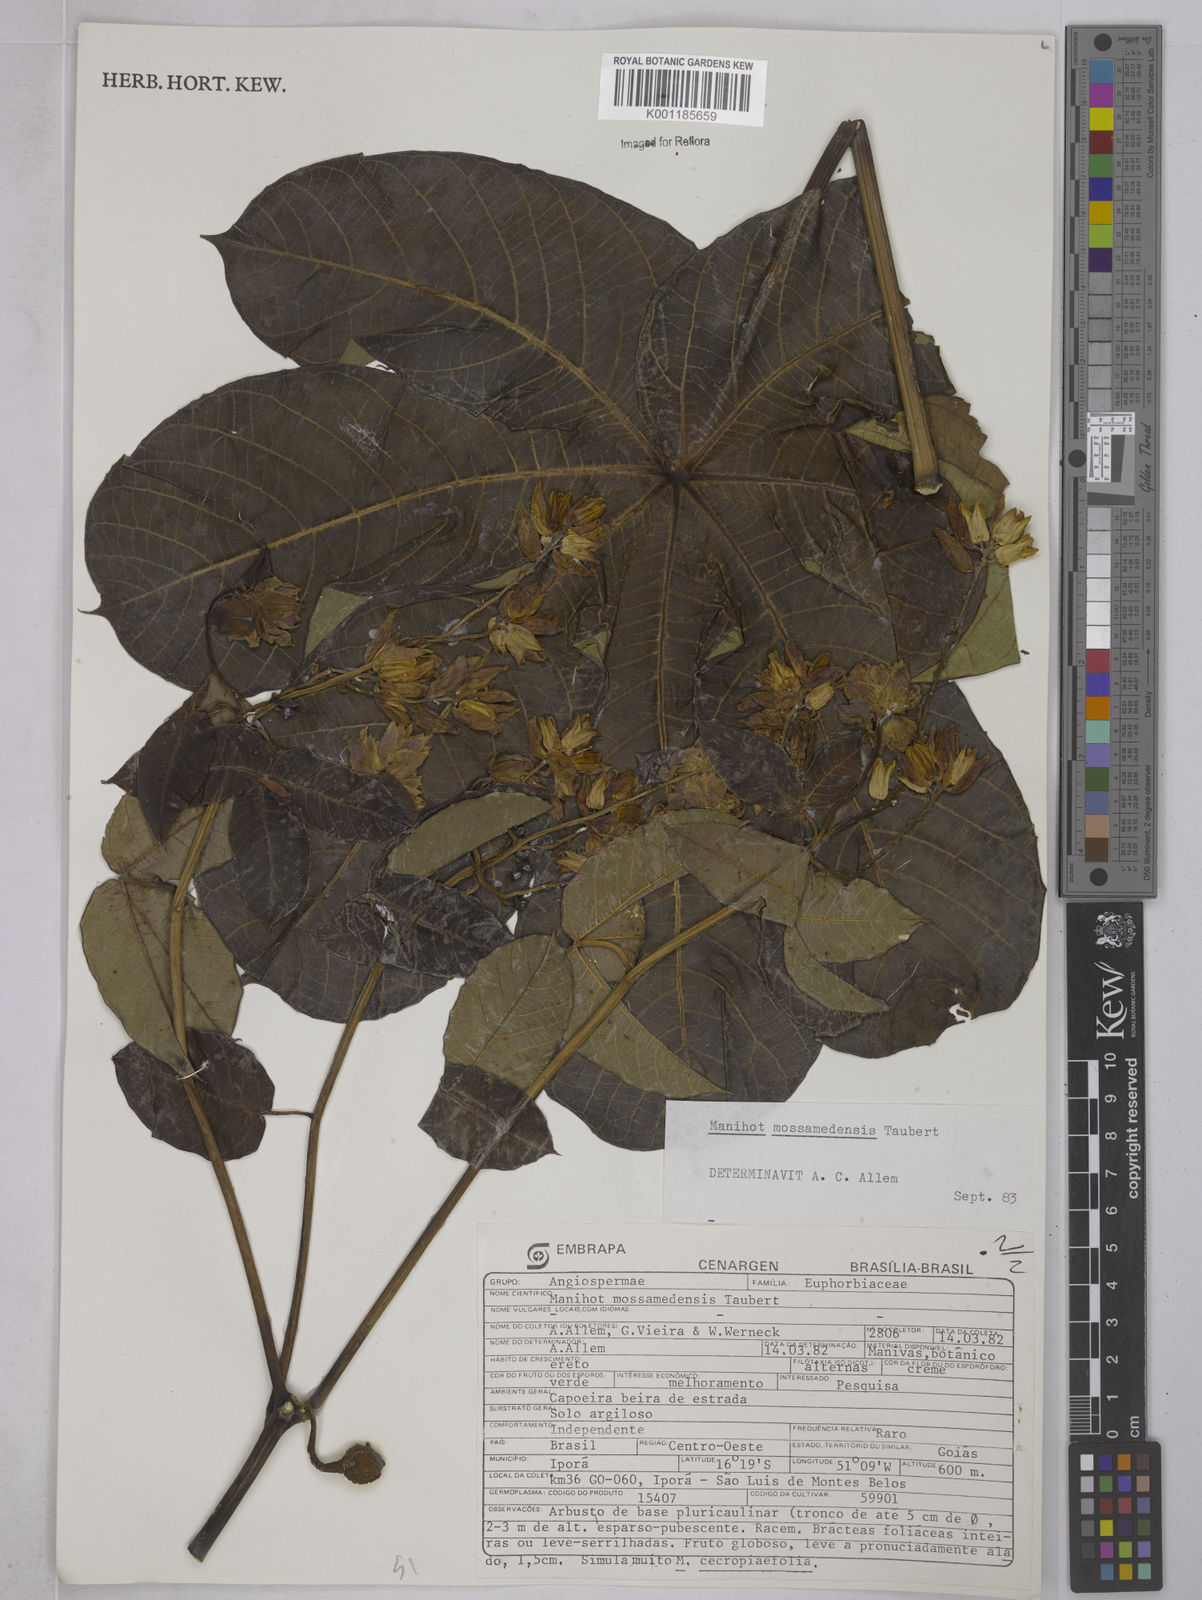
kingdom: Plantae
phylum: Tracheophyta
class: Magnoliopsida
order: Malpighiales
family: Euphorbiaceae
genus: Manihot
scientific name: Manihot mossamedensis
